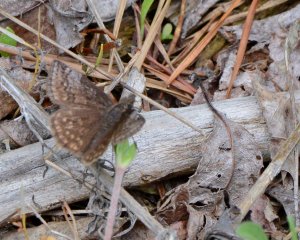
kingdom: Animalia
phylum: Arthropoda
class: Insecta
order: Lepidoptera
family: Hesperiidae
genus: Erynnis
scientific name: Erynnis icelus
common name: Dreamy Duskywing
